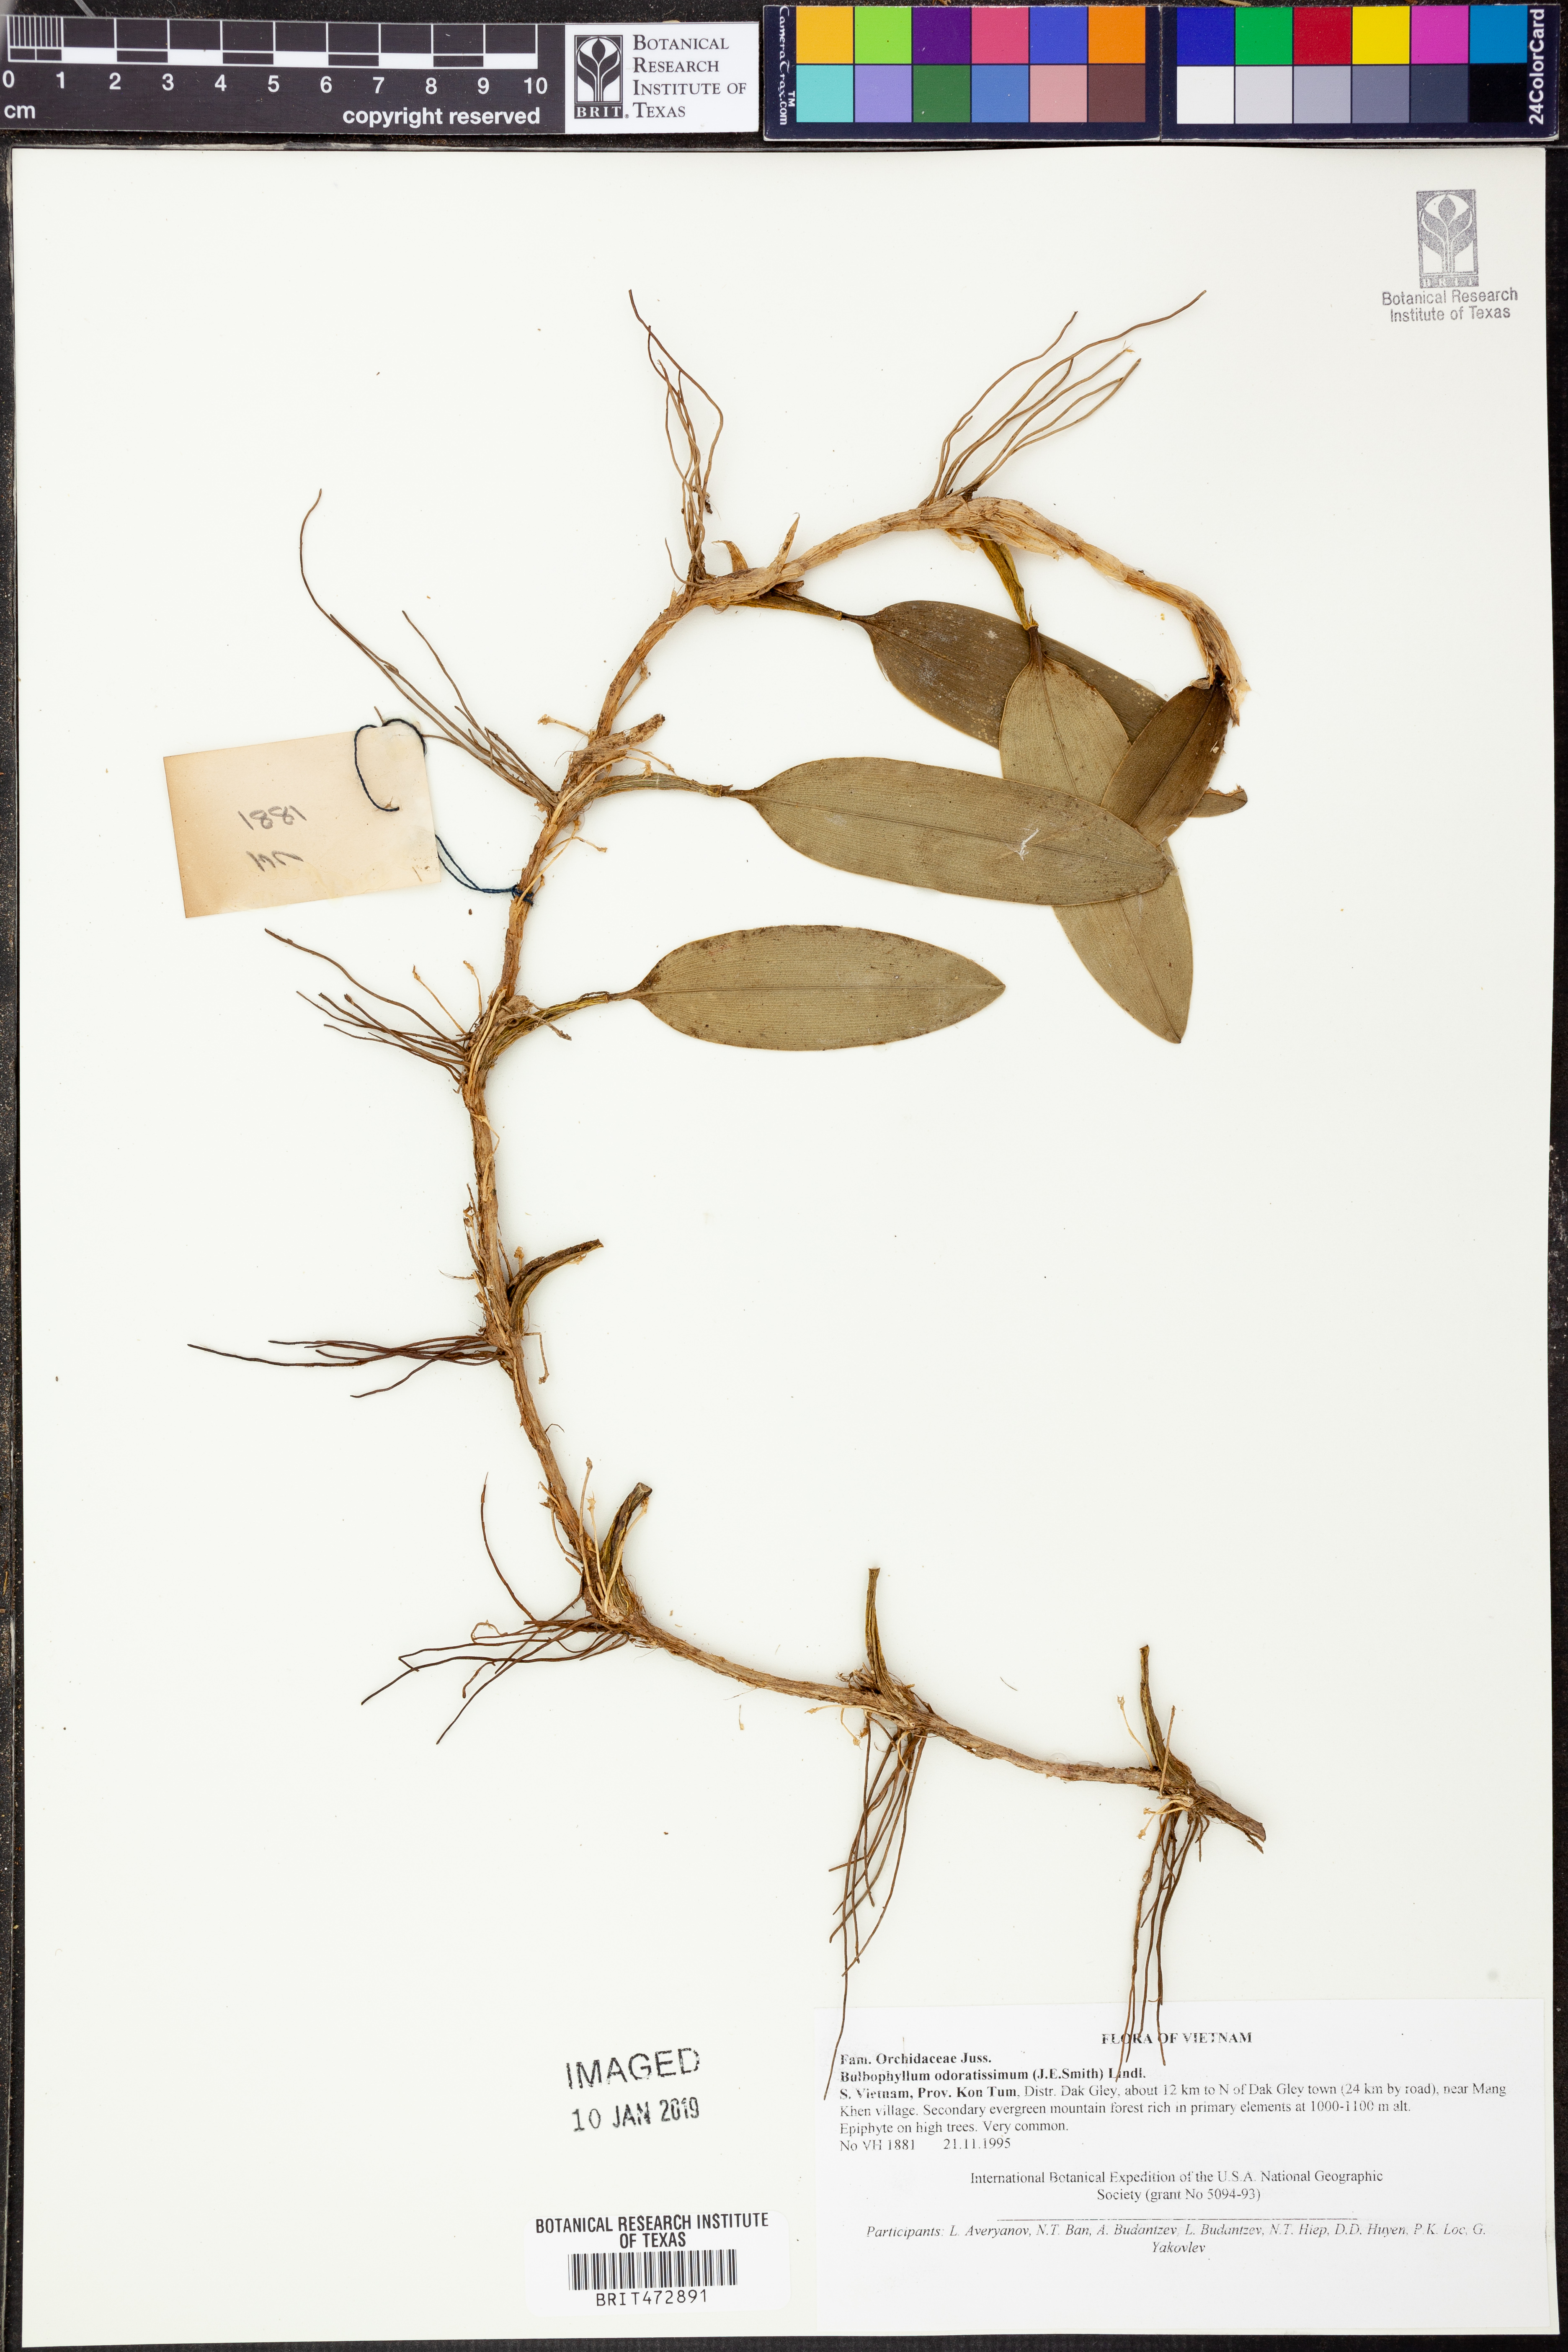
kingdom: Plantae
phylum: Tracheophyta
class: Liliopsida
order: Asparagales
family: Orchidaceae
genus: Bulbophyllum
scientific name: Bulbophyllum odoratissimum
